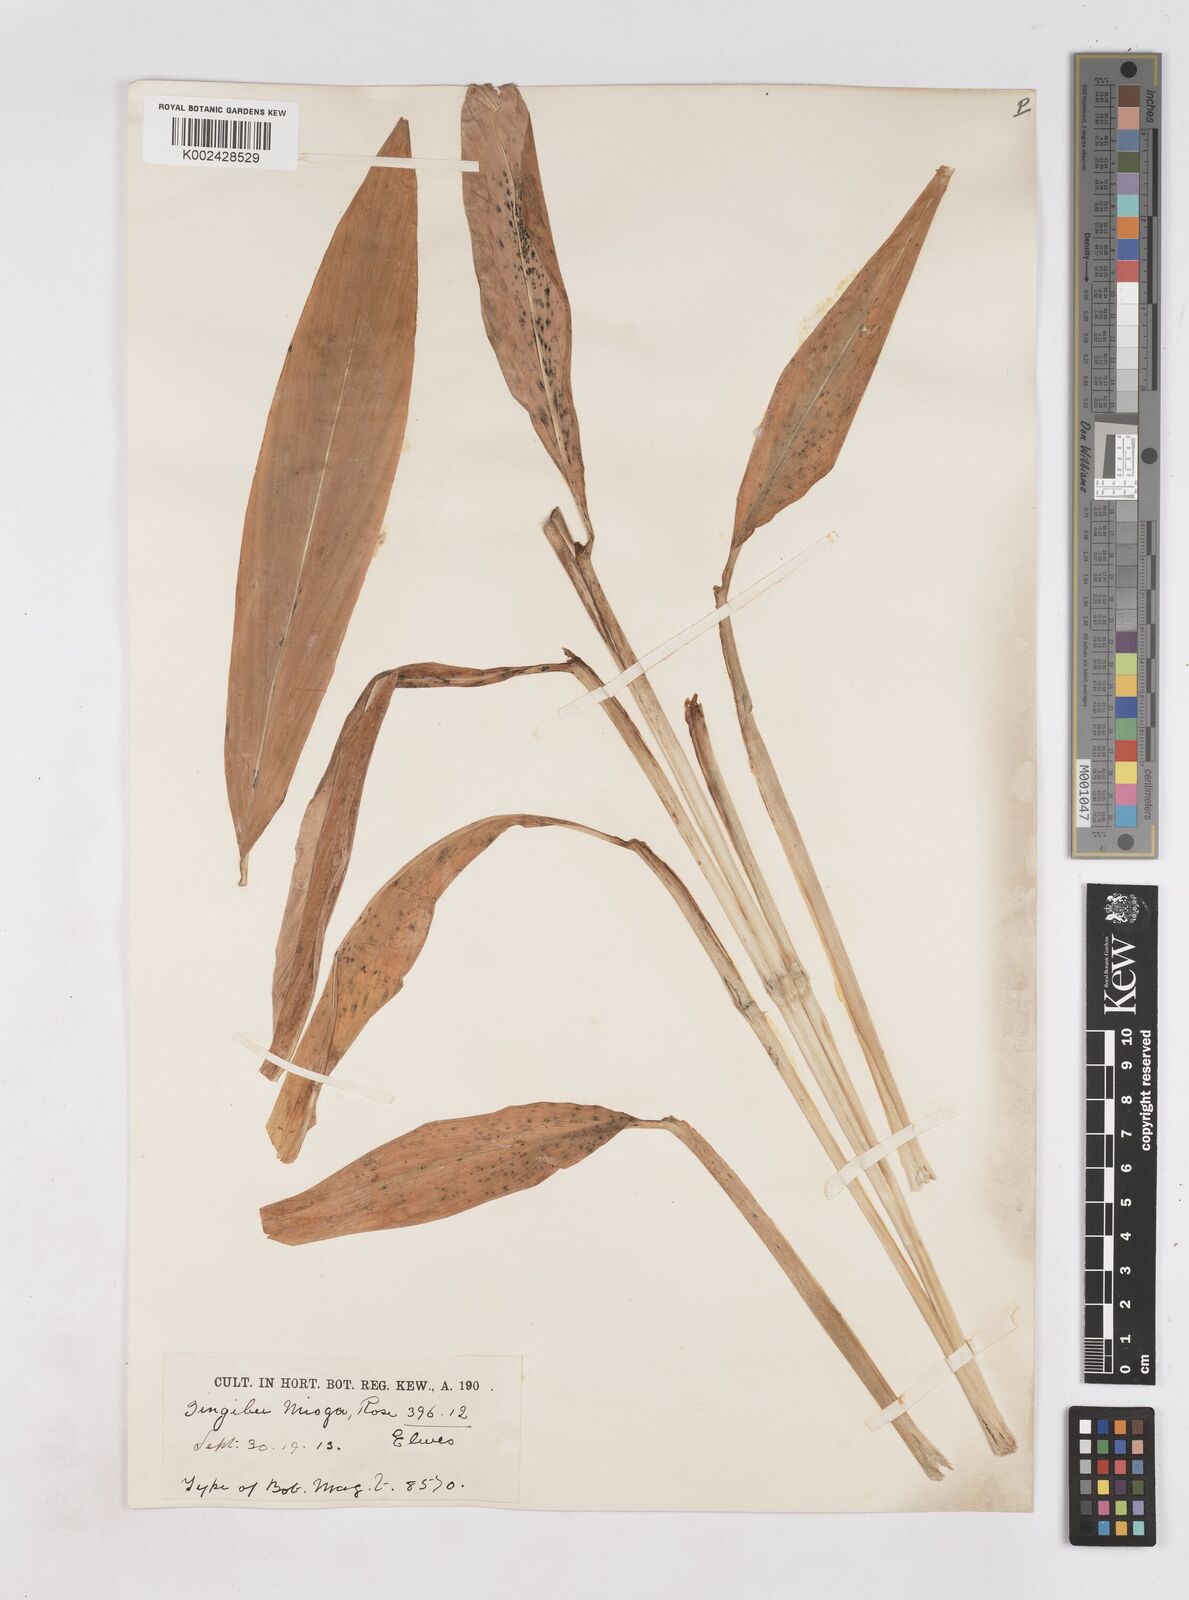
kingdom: Plantae
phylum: Tracheophyta
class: Liliopsida
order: Zingiberales
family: Zingiberaceae
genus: Zingiber
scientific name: Zingiber mioga
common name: Japanese ginger
